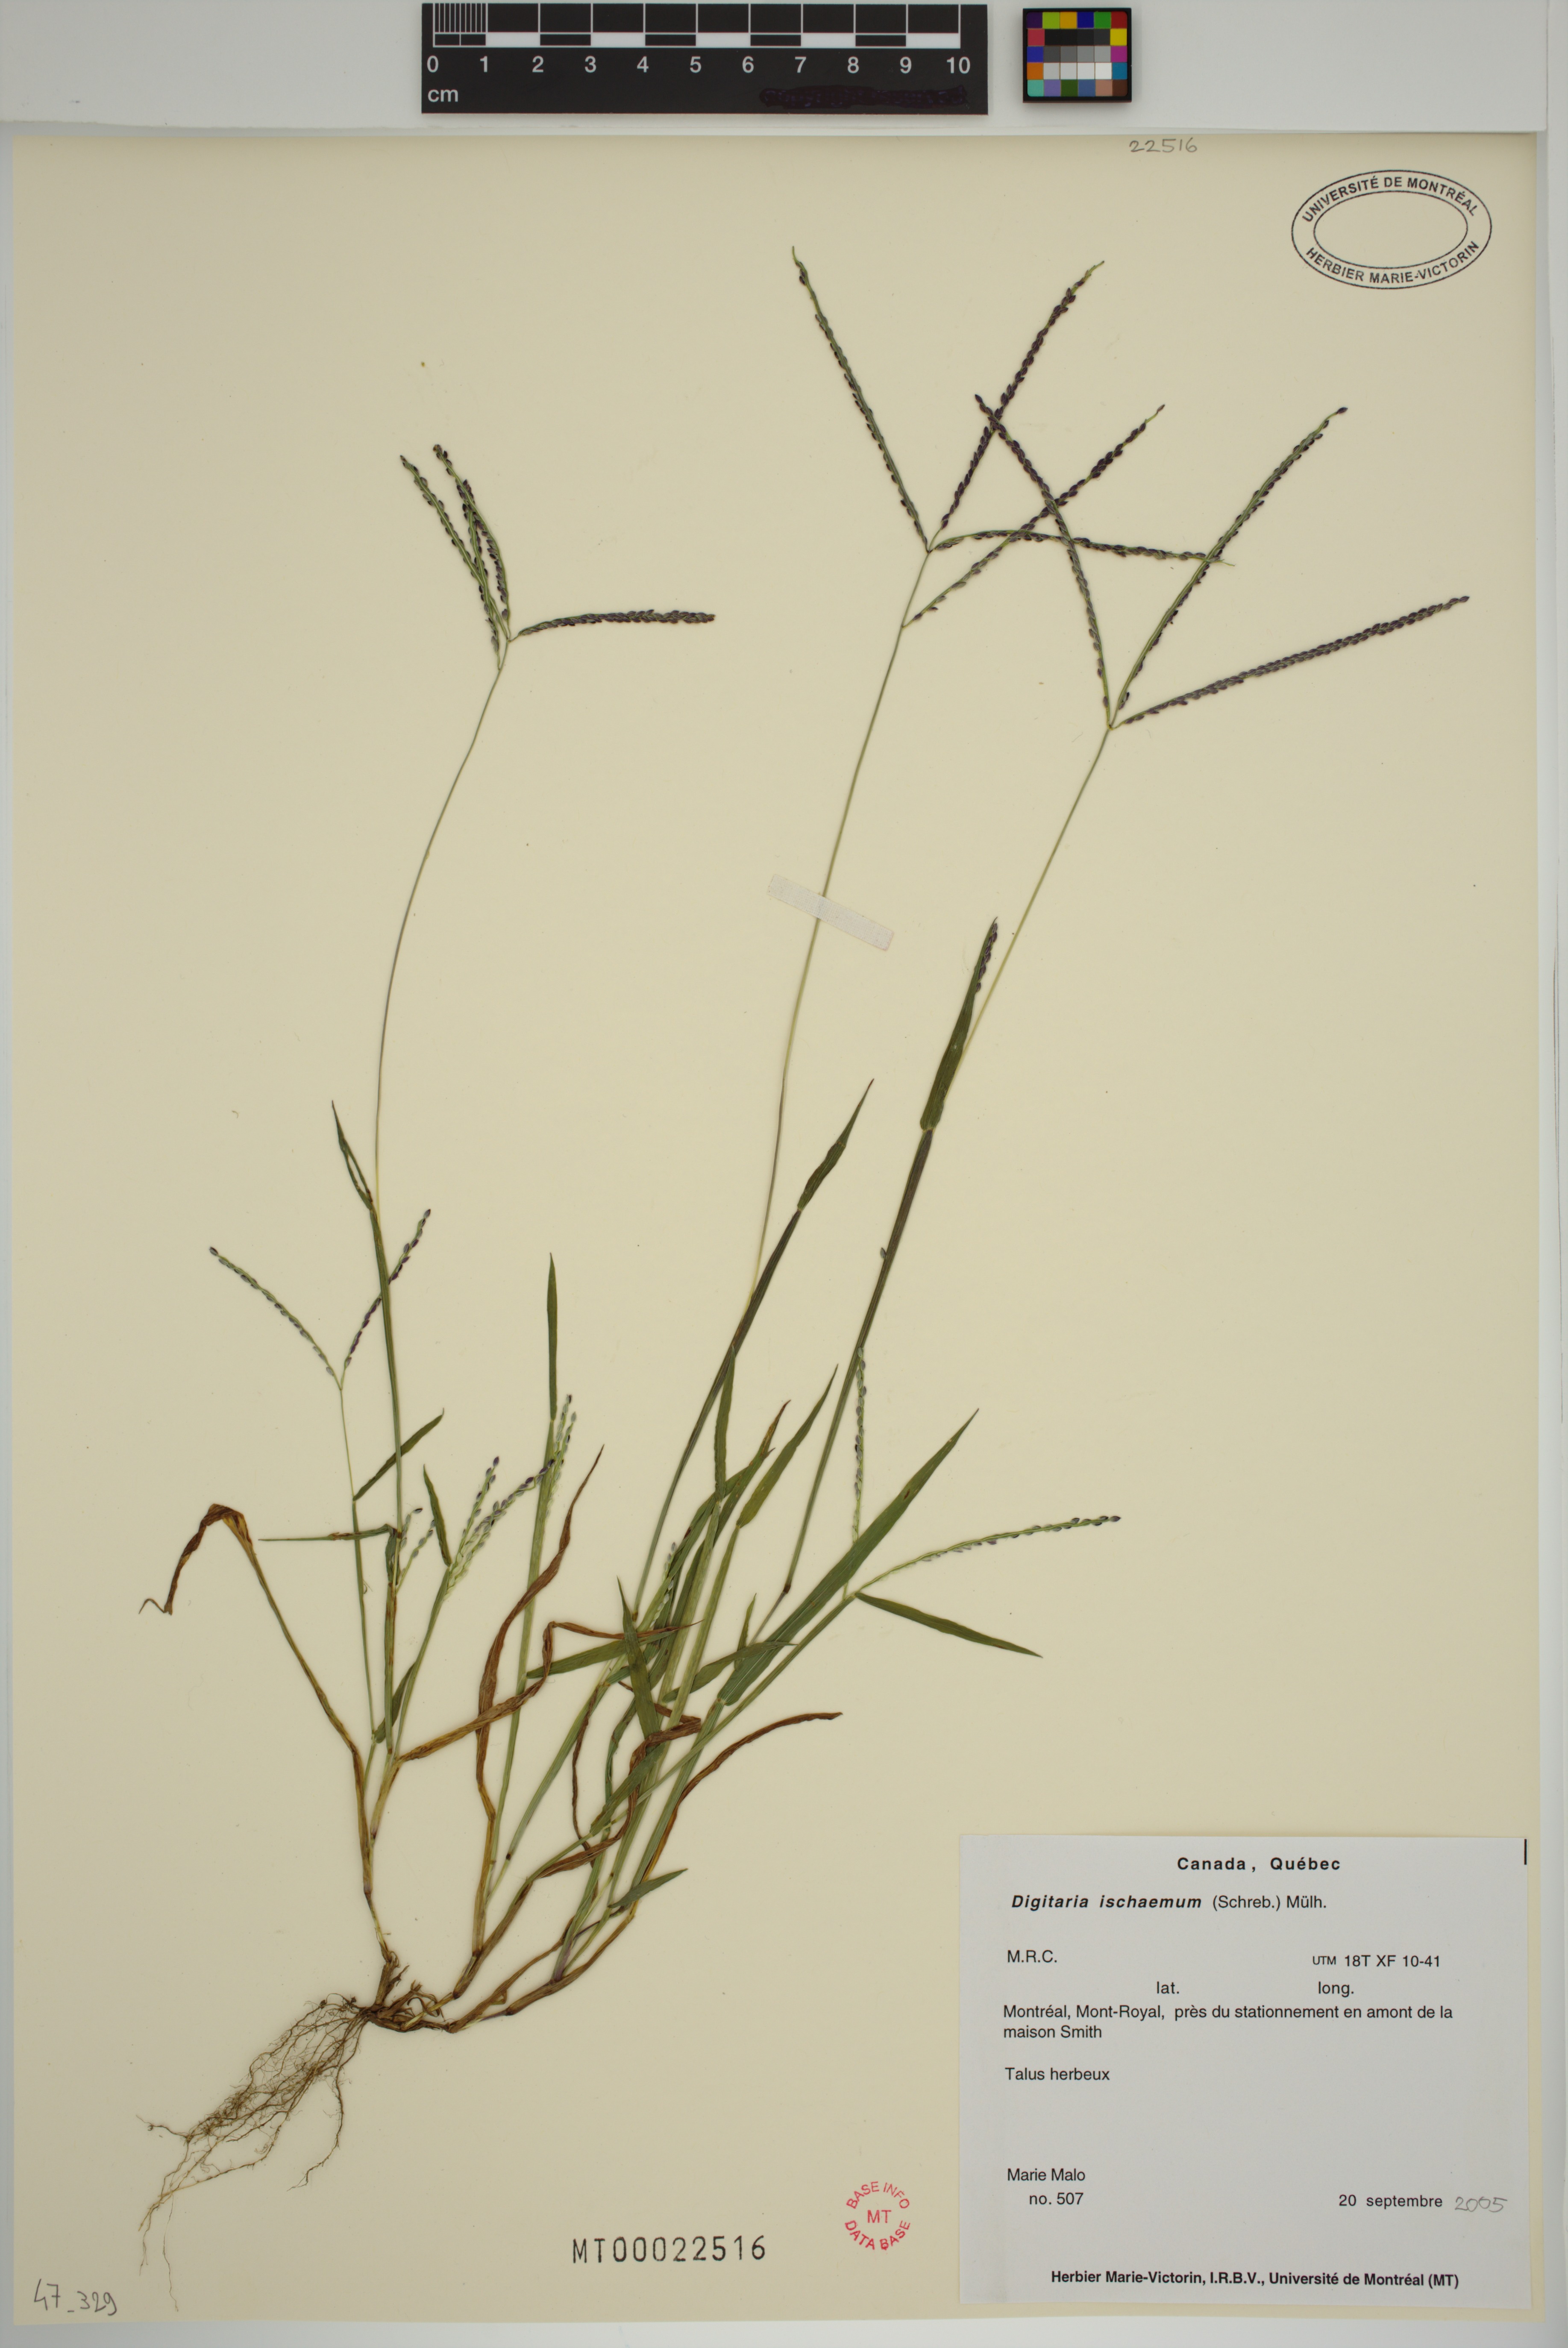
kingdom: Plantae
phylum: Tracheophyta
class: Liliopsida
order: Poales
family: Poaceae
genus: Digitaria
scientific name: Digitaria ischaemum
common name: Smooth crabgrass
